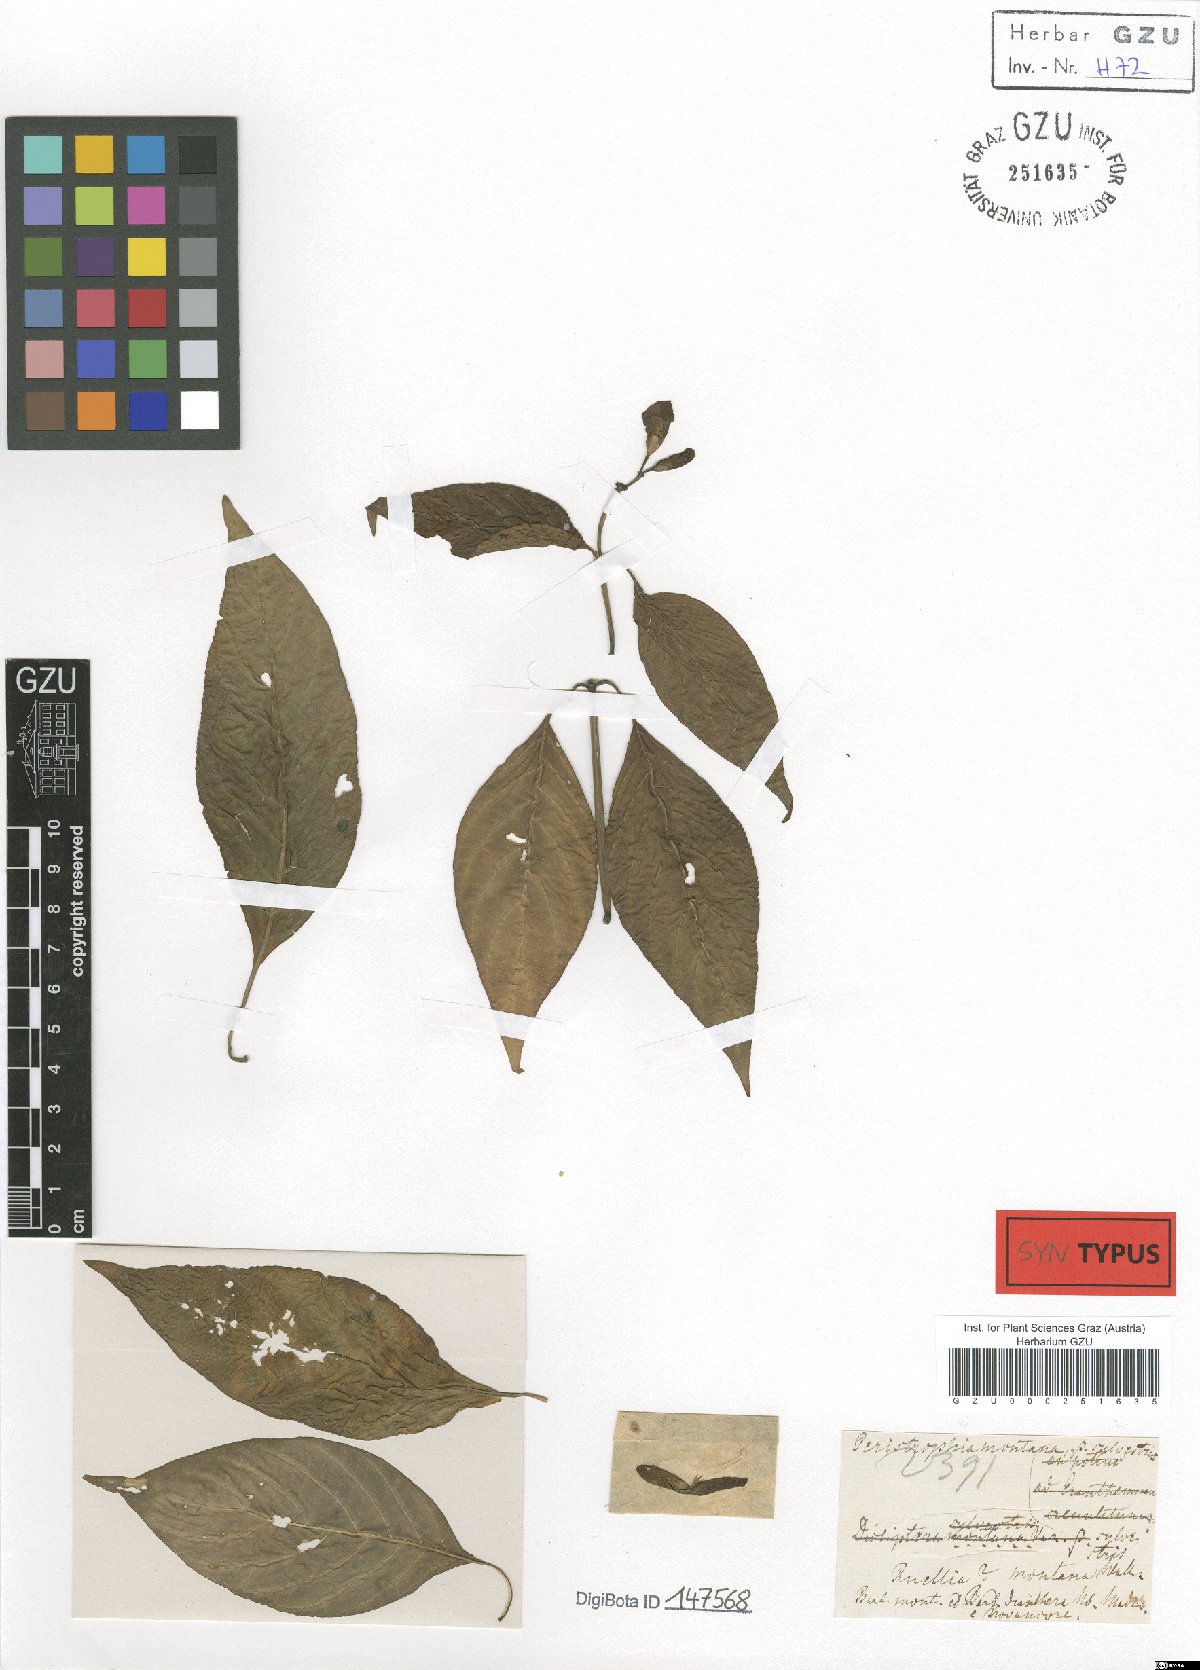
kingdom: Plantae
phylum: Tracheophyta
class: Magnoliopsida
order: Lamiales
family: Acanthaceae
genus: Dicliptera
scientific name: Dicliptera baphica
